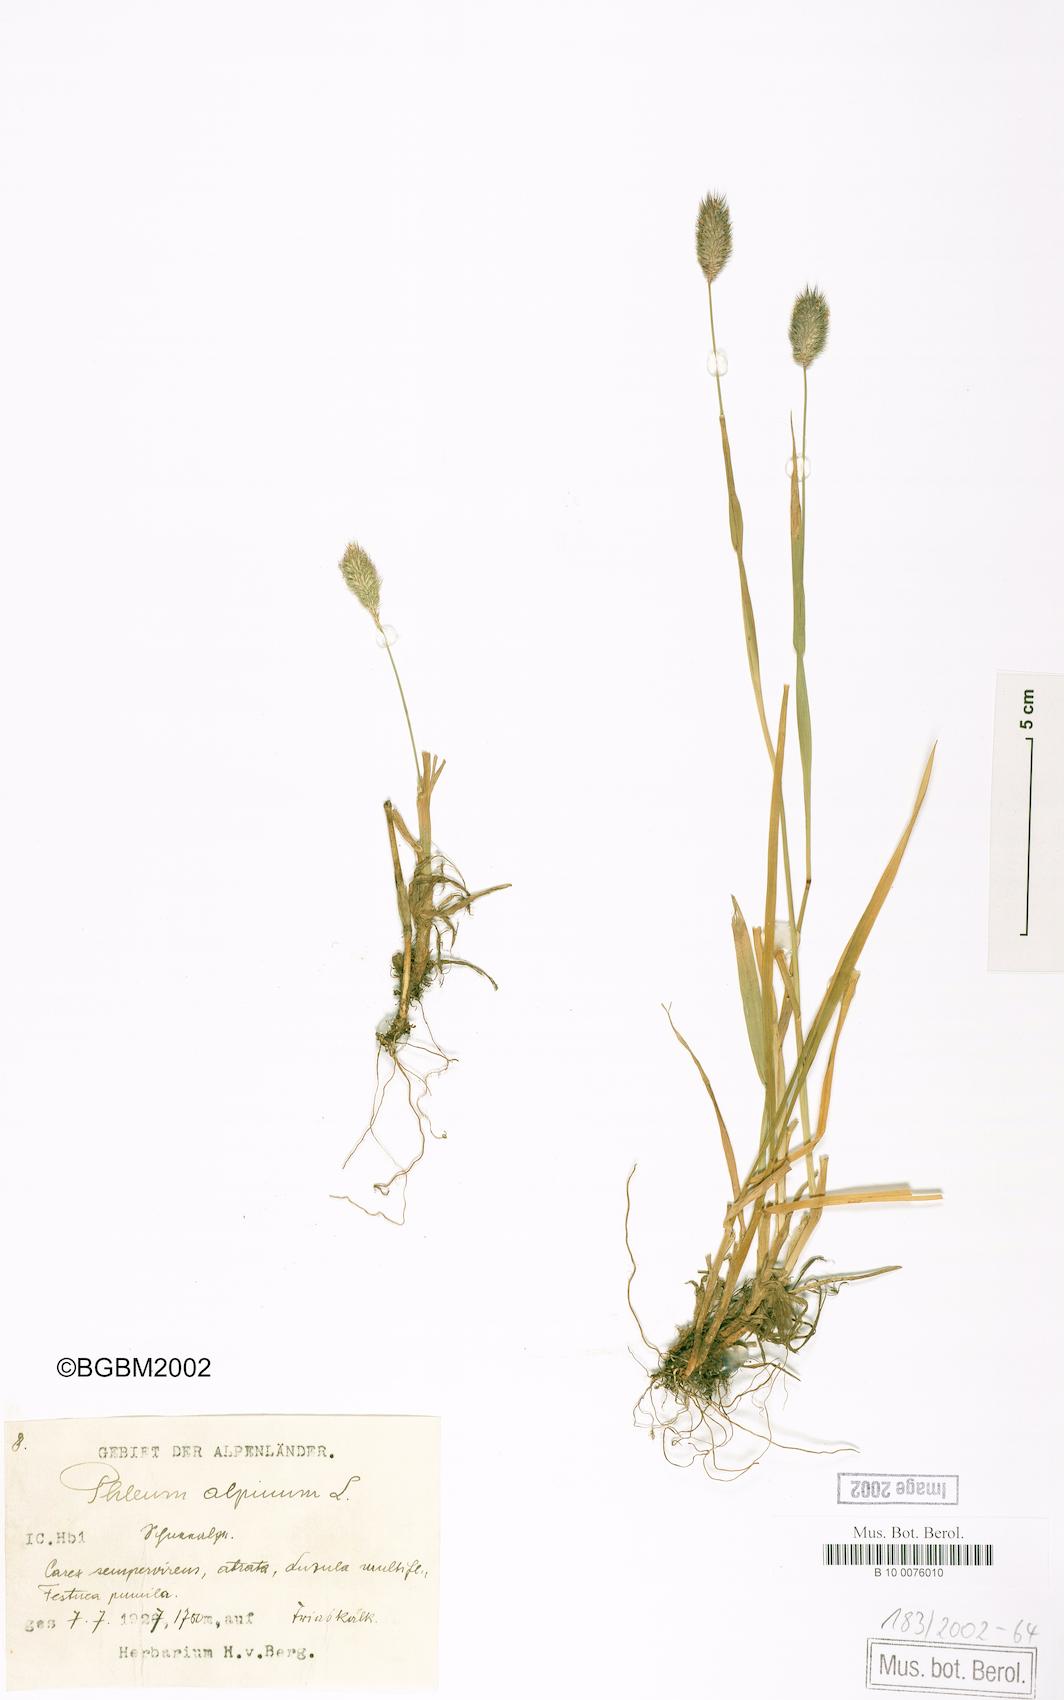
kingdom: Plantae
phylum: Tracheophyta
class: Liliopsida
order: Poales
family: Poaceae
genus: Phleum
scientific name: Phleum alpinum
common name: Alpine cat's-tail
